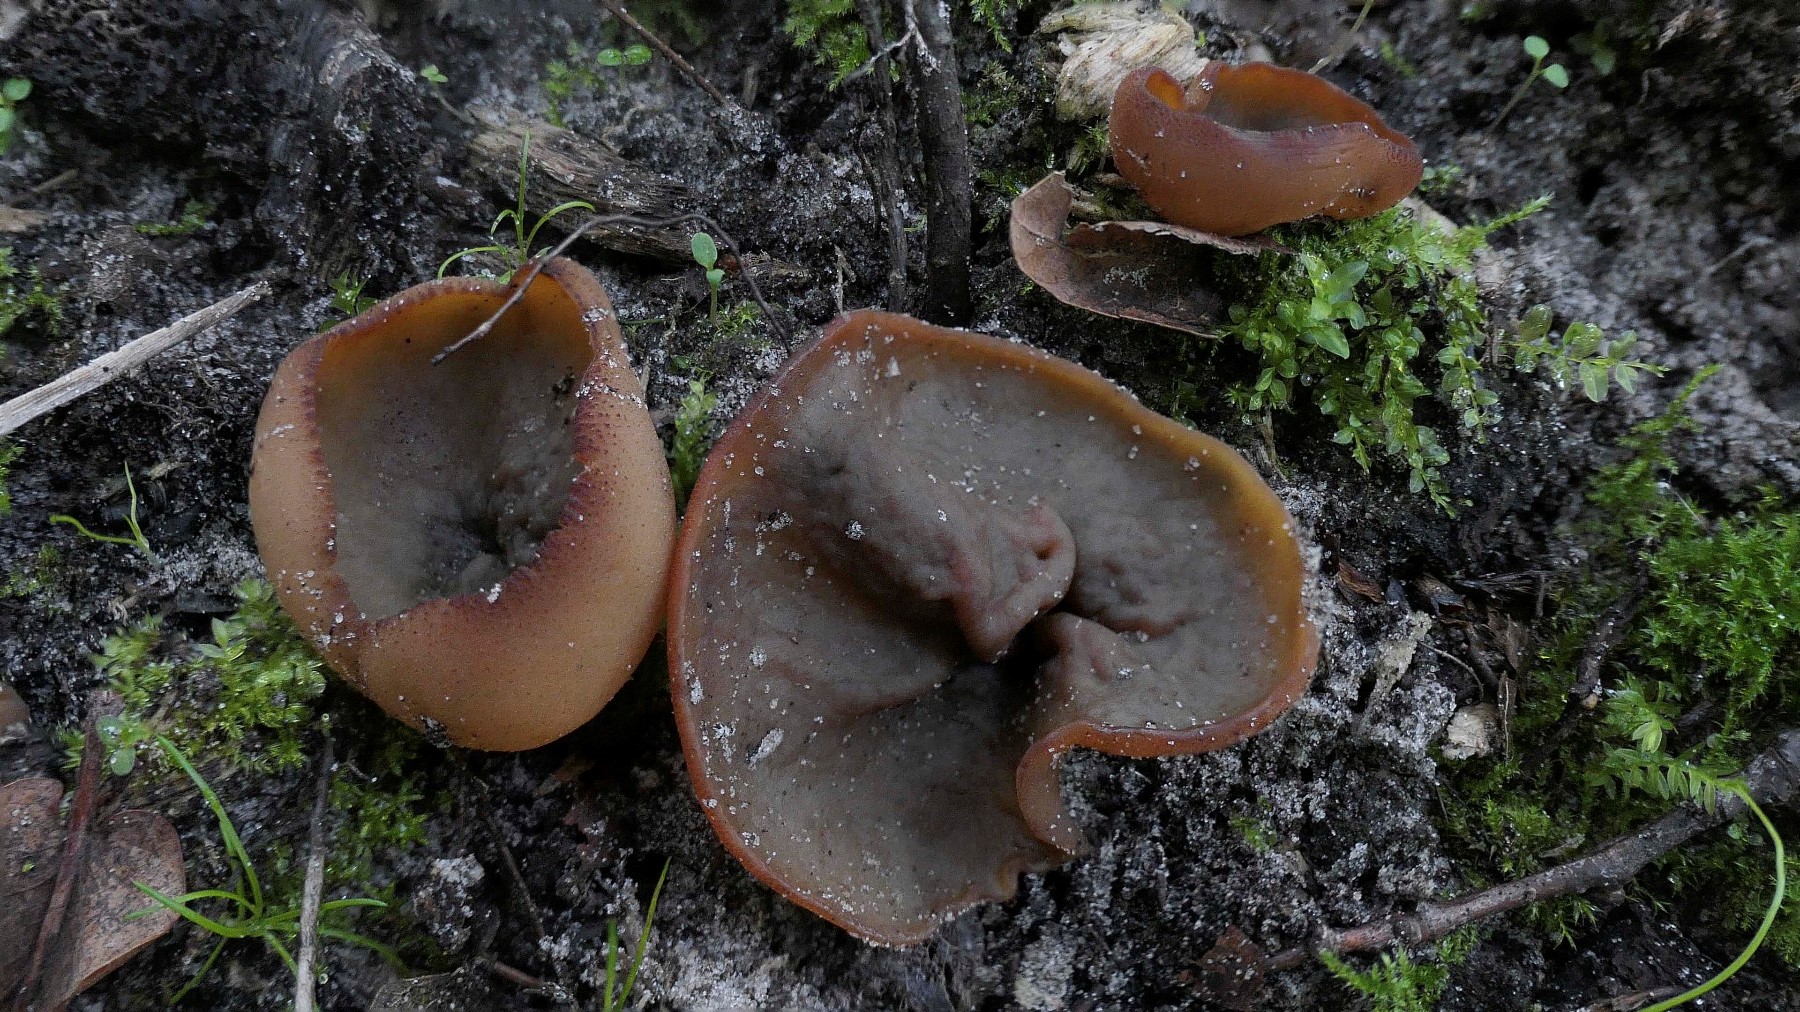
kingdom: Fungi
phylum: Ascomycota
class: Pezizomycetes
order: Pezizales
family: Pezizaceae
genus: Legaliana
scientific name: Legaliana limnaea
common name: mose-bægersvamp
